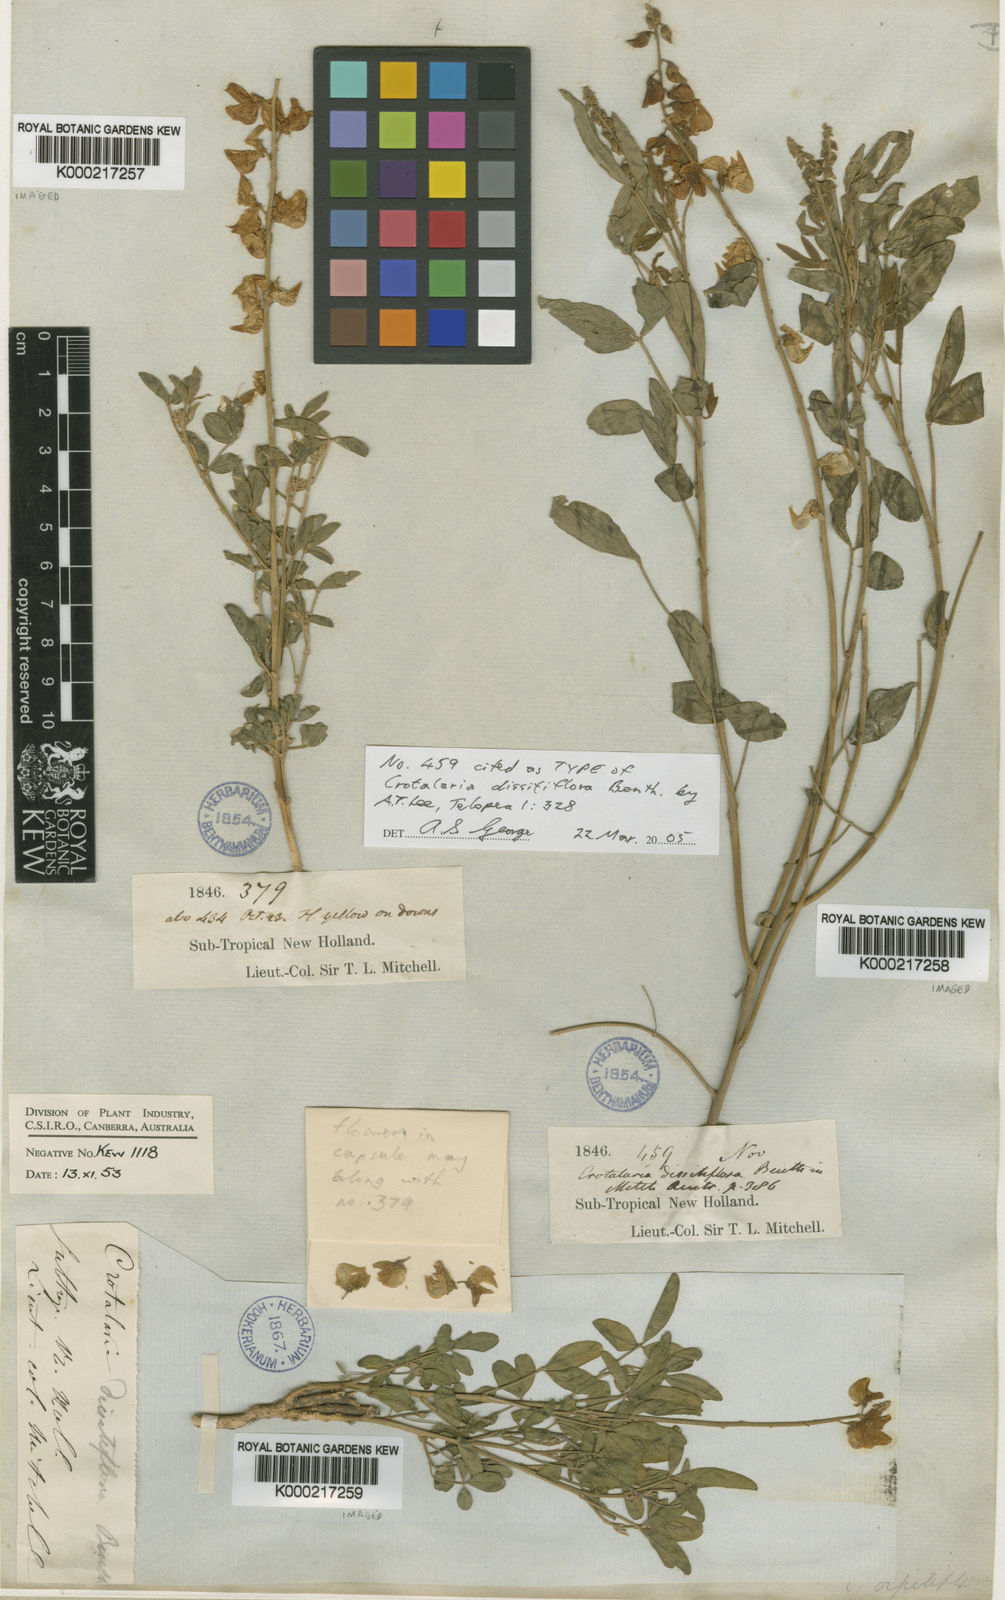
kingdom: Plantae
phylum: Tracheophyta
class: Magnoliopsida
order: Fabales
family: Fabaceae
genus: Crotalaria
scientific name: Crotalaria dissitiflora
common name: Grey rattlepod
